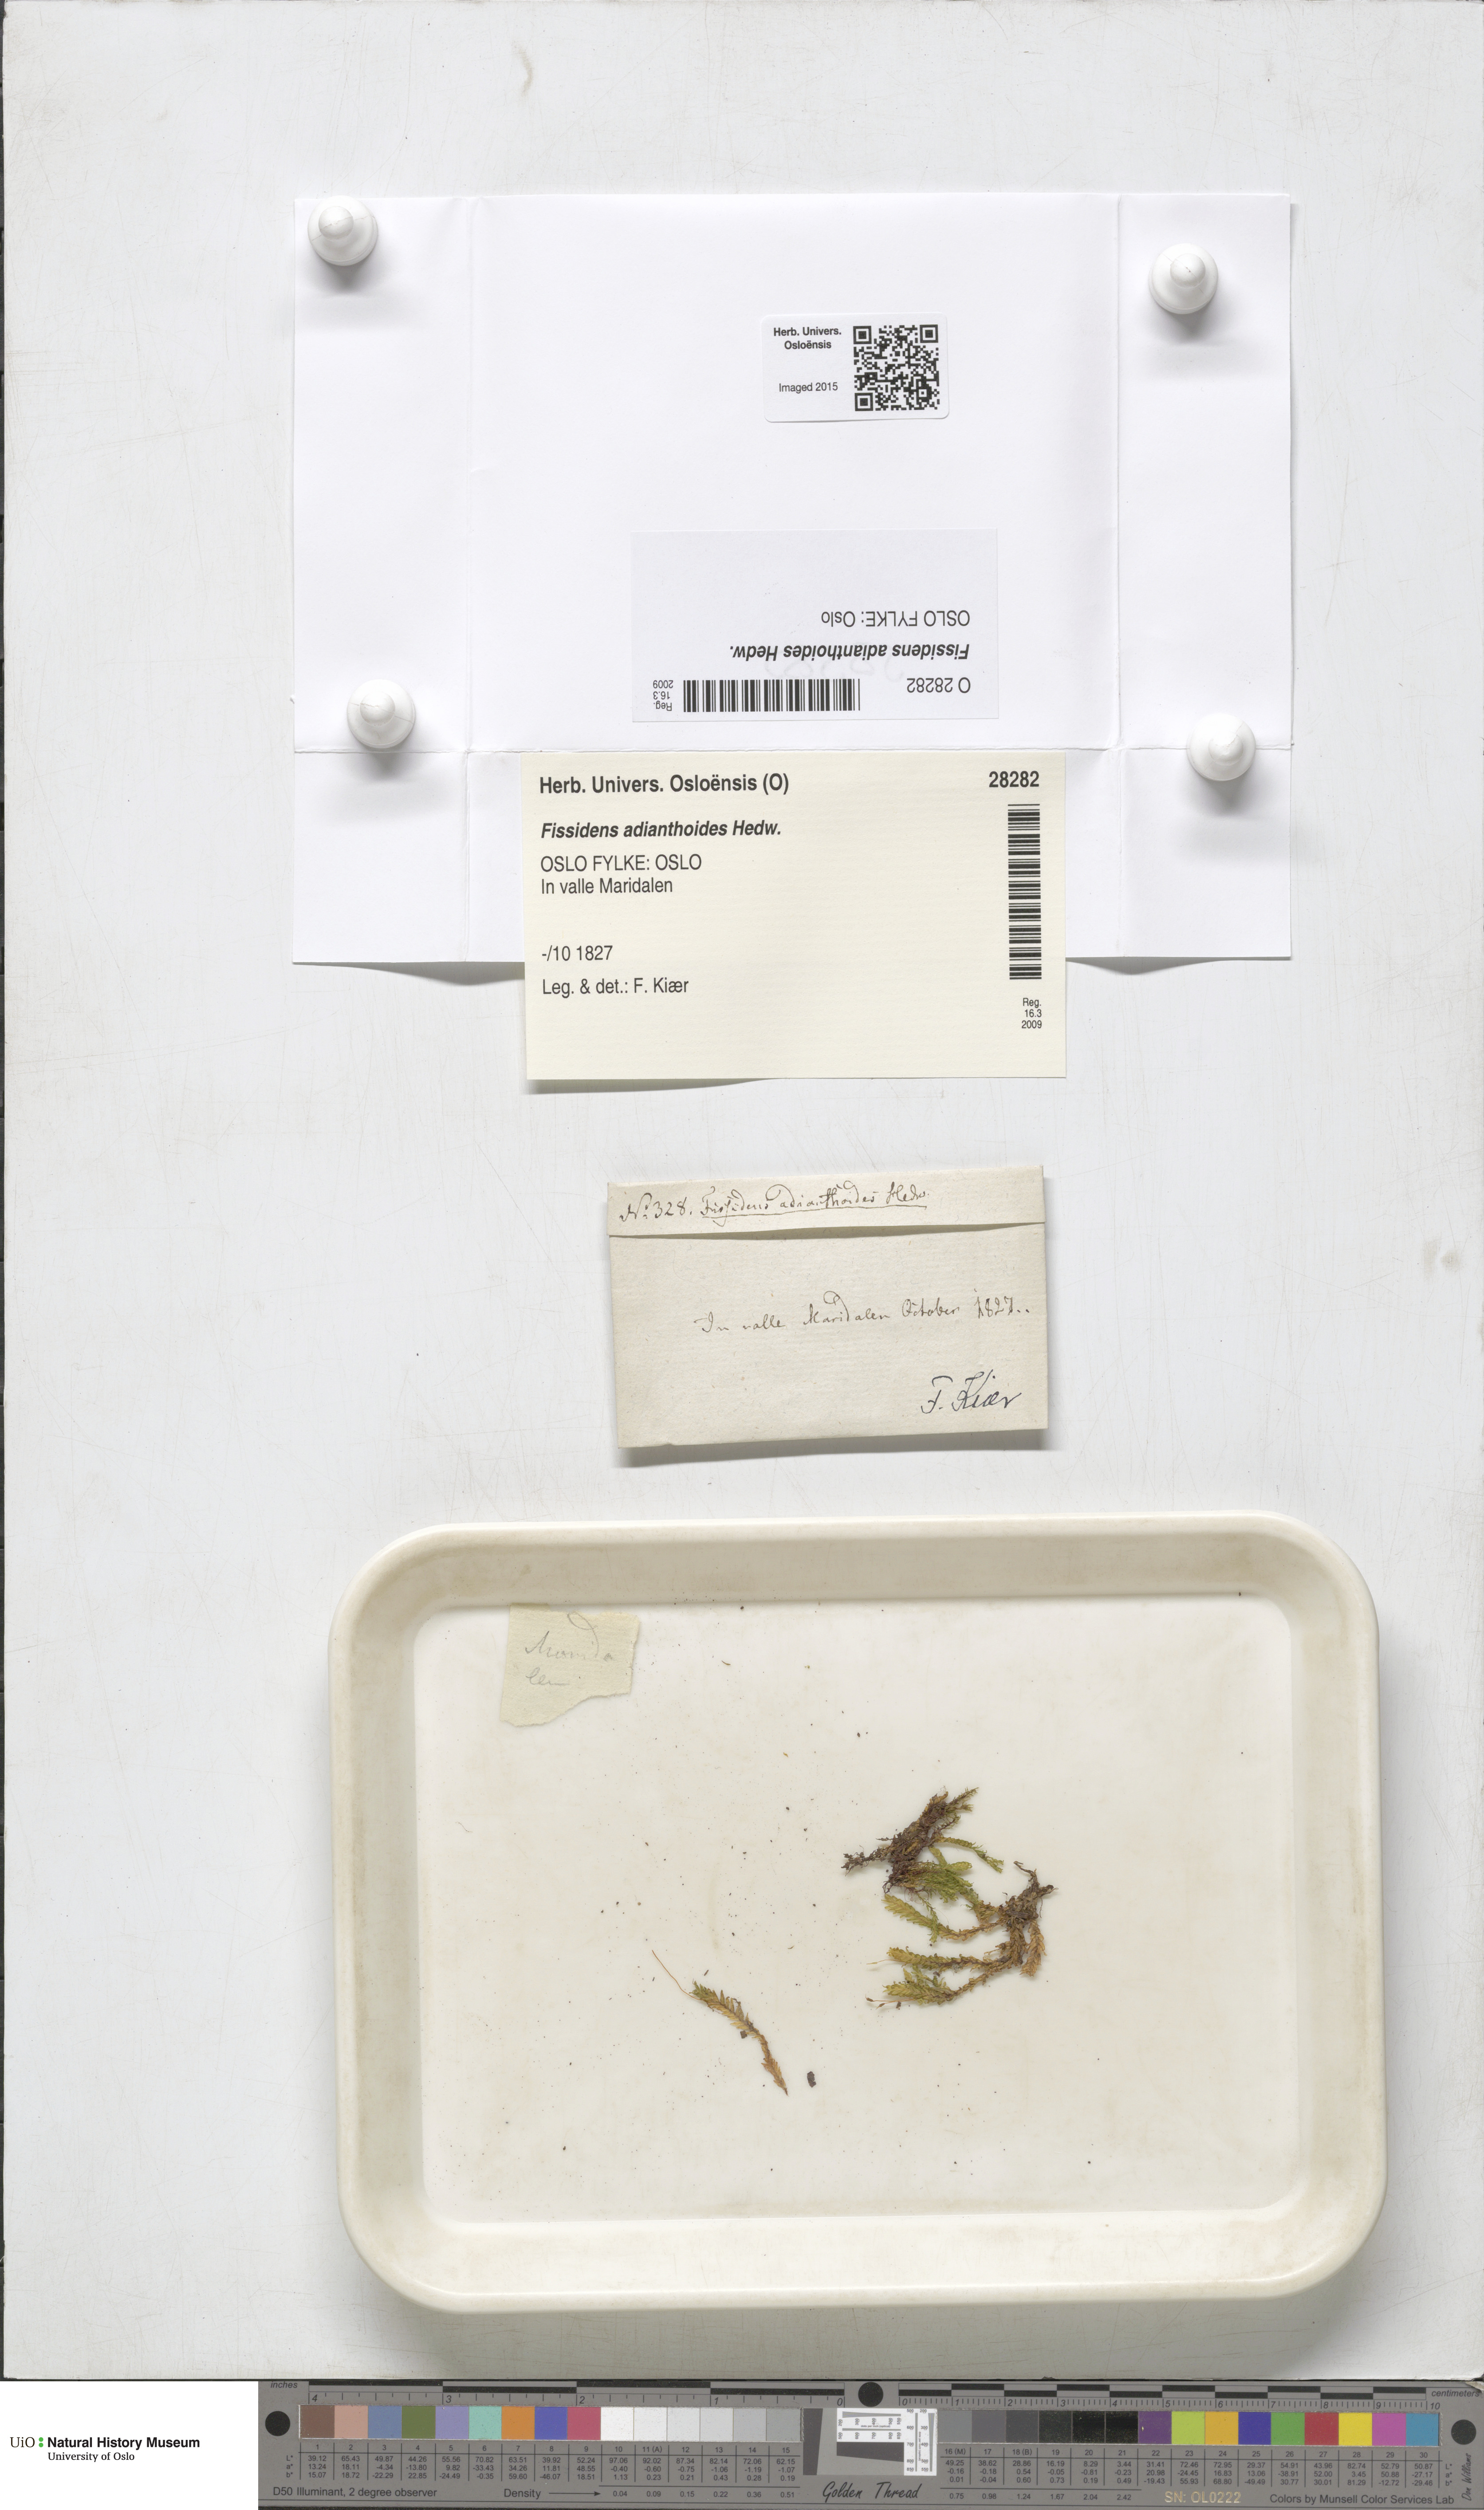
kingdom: Plantae
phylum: Bryophyta
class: Bryopsida
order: Dicranales
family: Fissidentaceae
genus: Fissidens
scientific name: Fissidens adianthoides
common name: Maidenhair pocket moss
